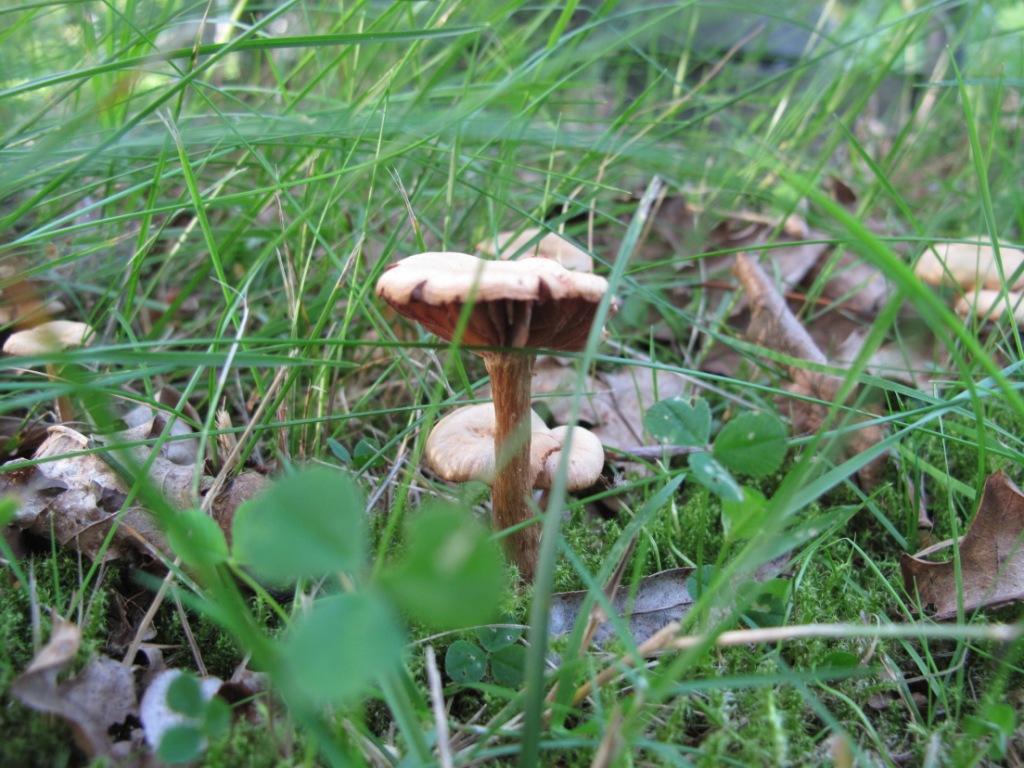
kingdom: Fungi
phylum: Basidiomycota
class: Agaricomycetes
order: Agaricales
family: Hydnangiaceae
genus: Laccaria
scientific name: Laccaria laccata
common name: rød ametysthat
